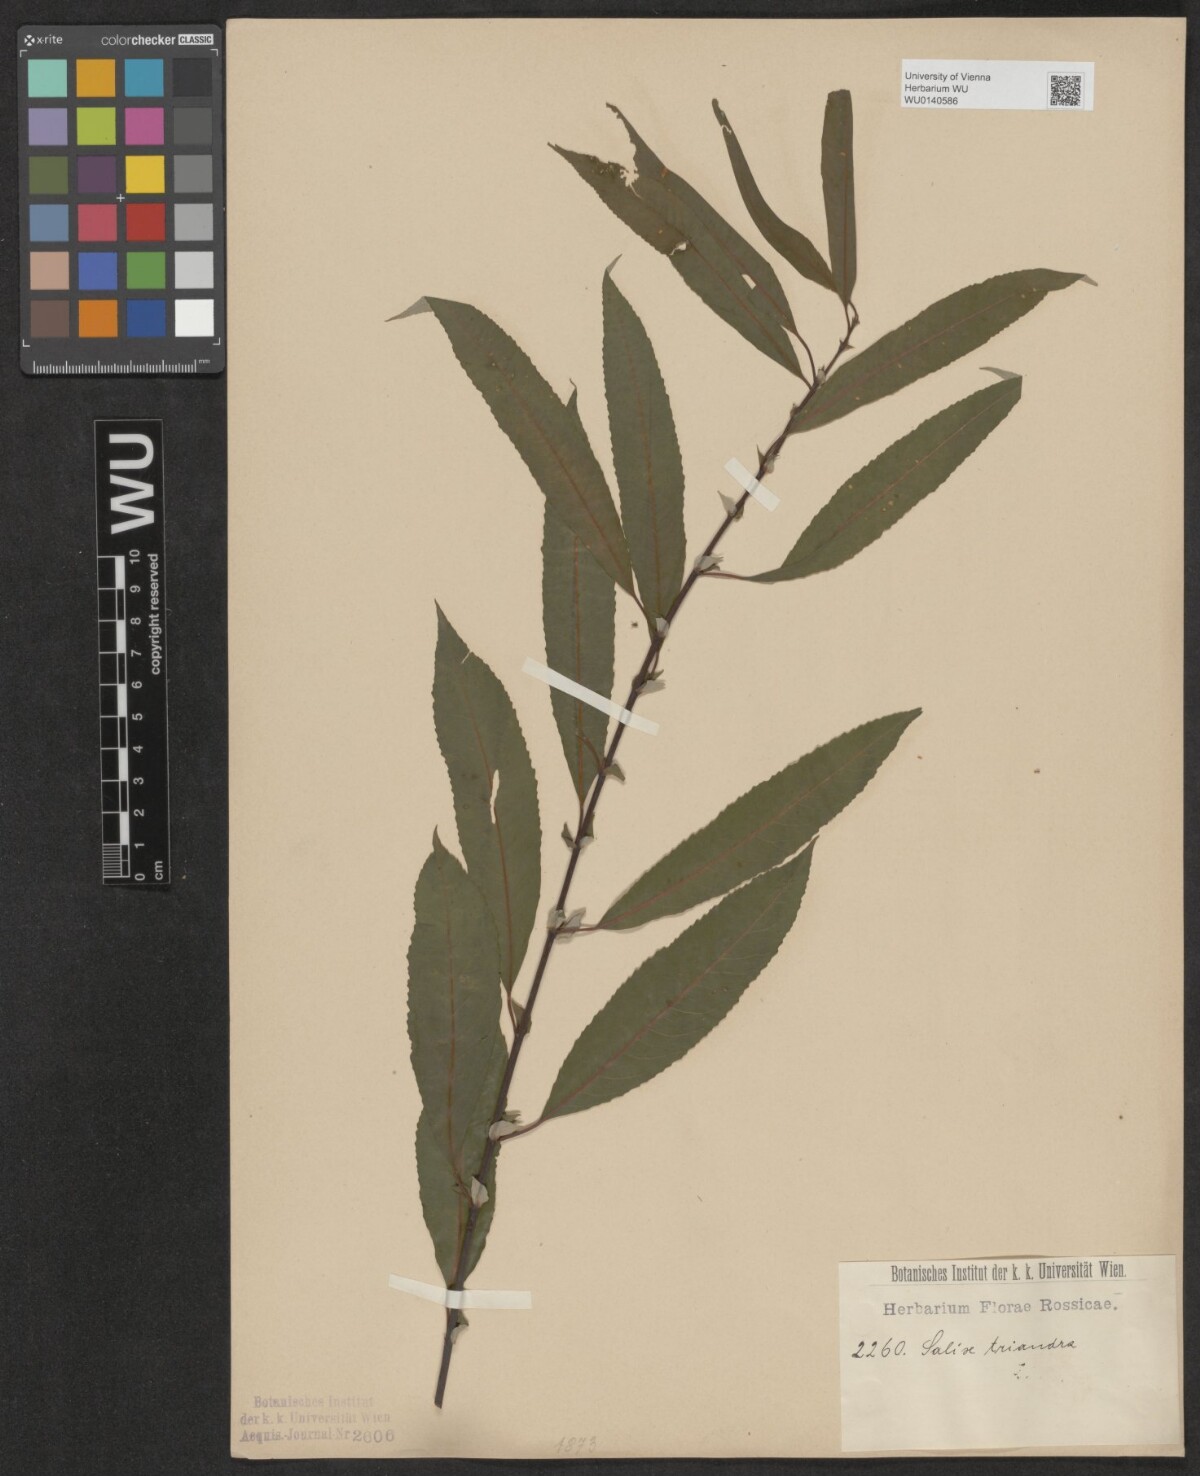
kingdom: Plantae
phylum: Tracheophyta
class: Magnoliopsida
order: Malpighiales
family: Salicaceae
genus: Salix
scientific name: Salix triandra
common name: Almond willow
